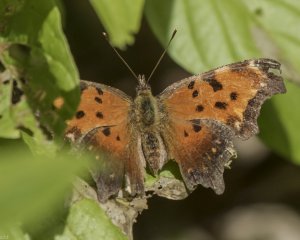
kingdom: Animalia
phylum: Arthropoda
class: Insecta
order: Lepidoptera
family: Nymphalidae
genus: Polygonia
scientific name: Polygonia progne
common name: Gray Comma
